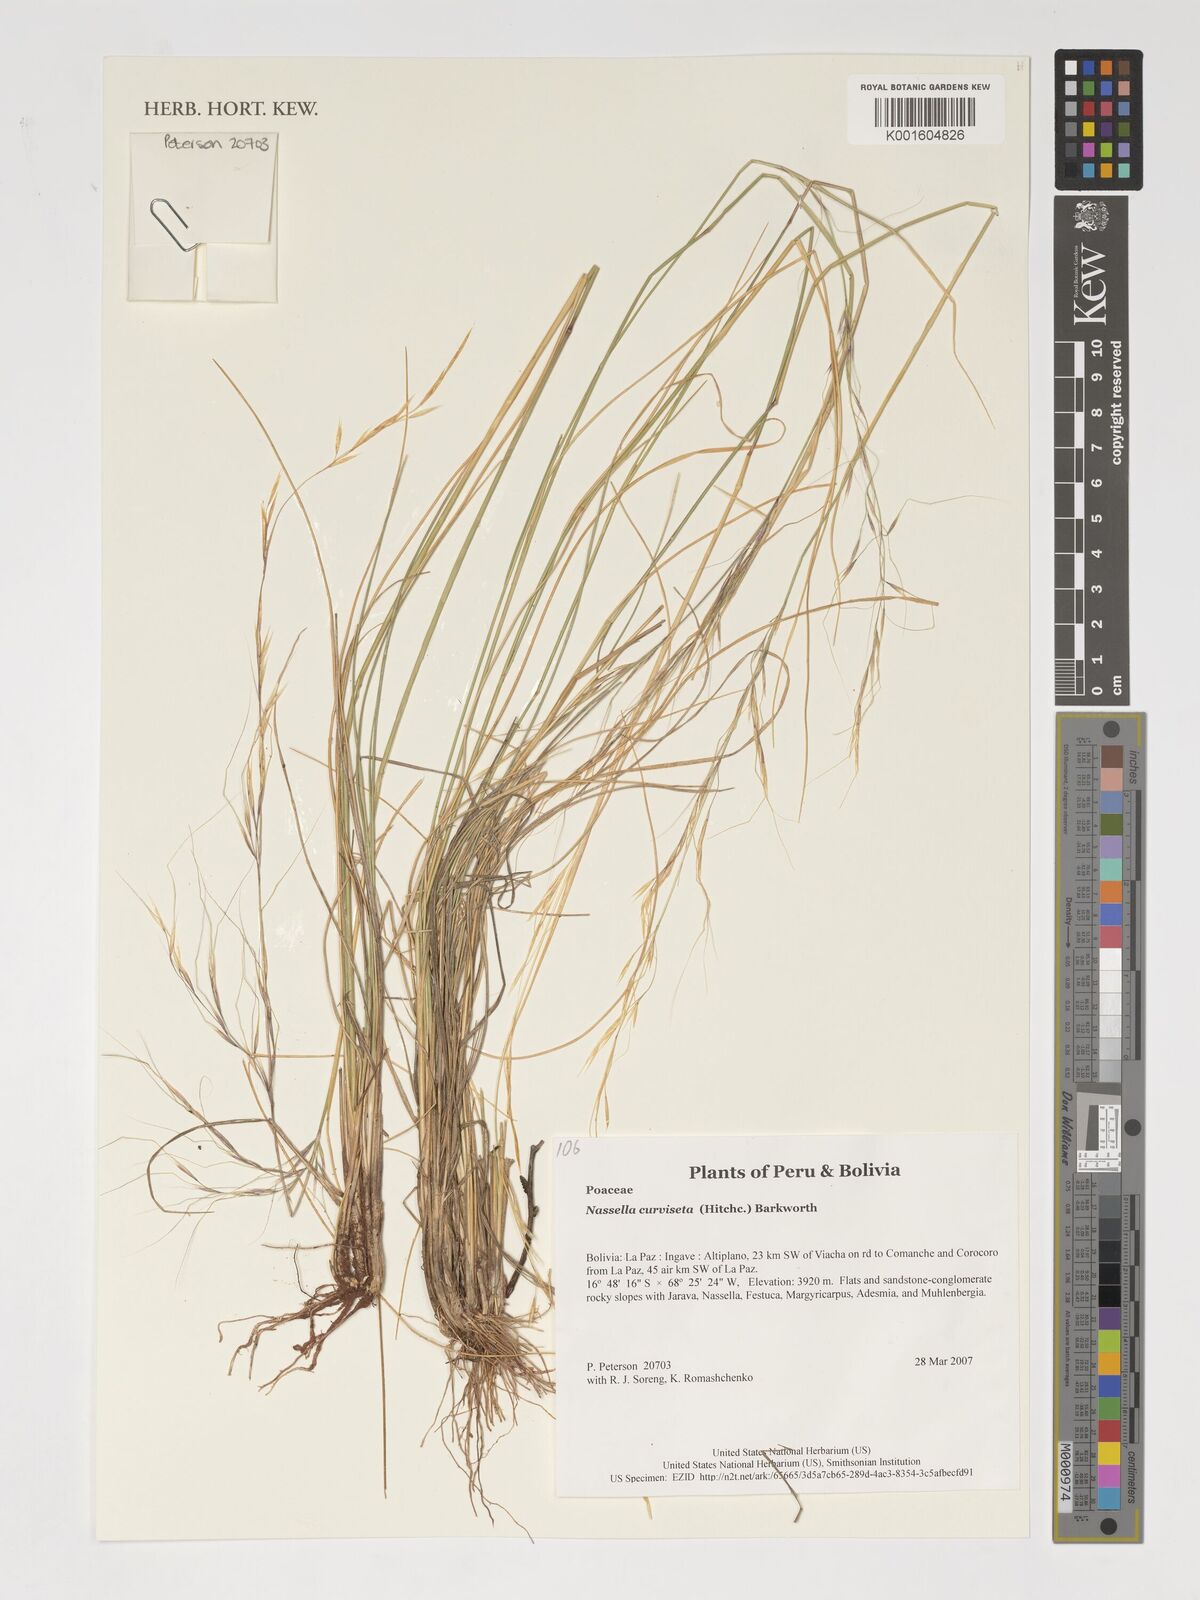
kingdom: Plantae
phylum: Tracheophyta
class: Liliopsida
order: Poales
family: Poaceae
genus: Nassella
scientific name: Nassella arcuata
